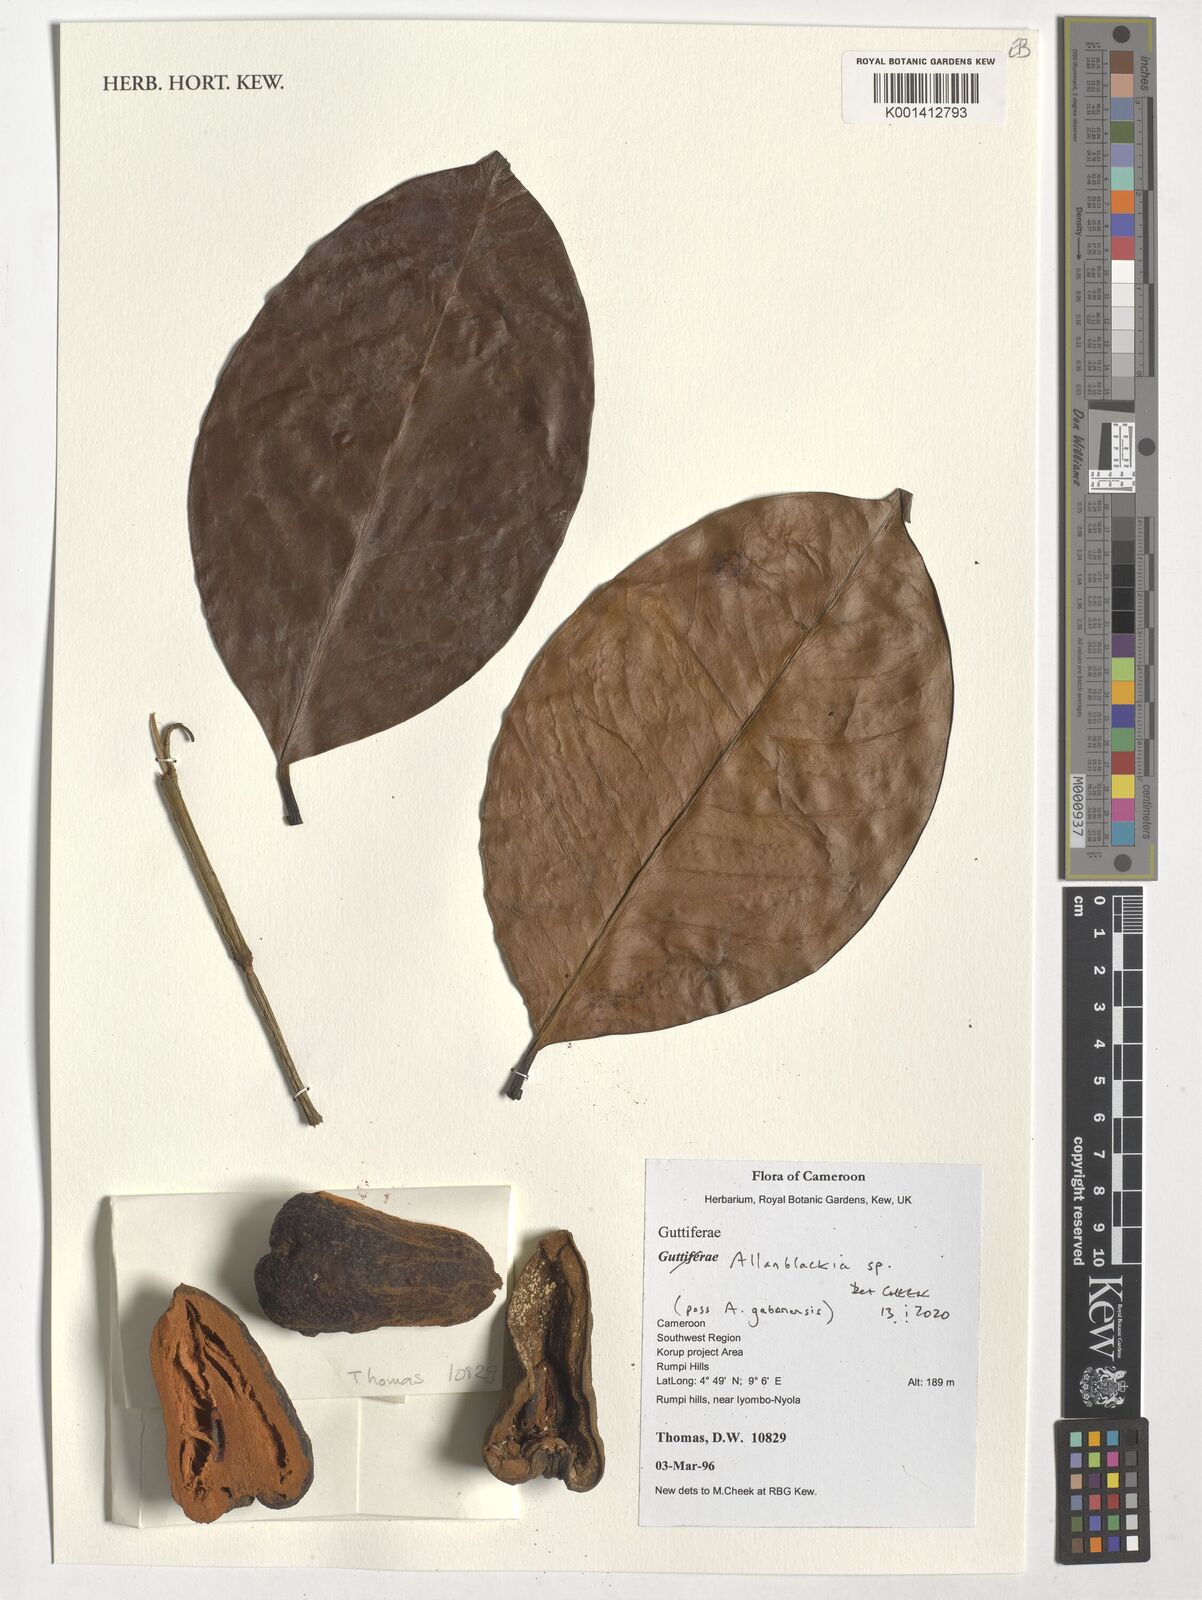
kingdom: Plantae
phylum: Tracheophyta
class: Magnoliopsida
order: Malpighiales
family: Clusiaceae
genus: Allanblackia
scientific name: Allanblackia
